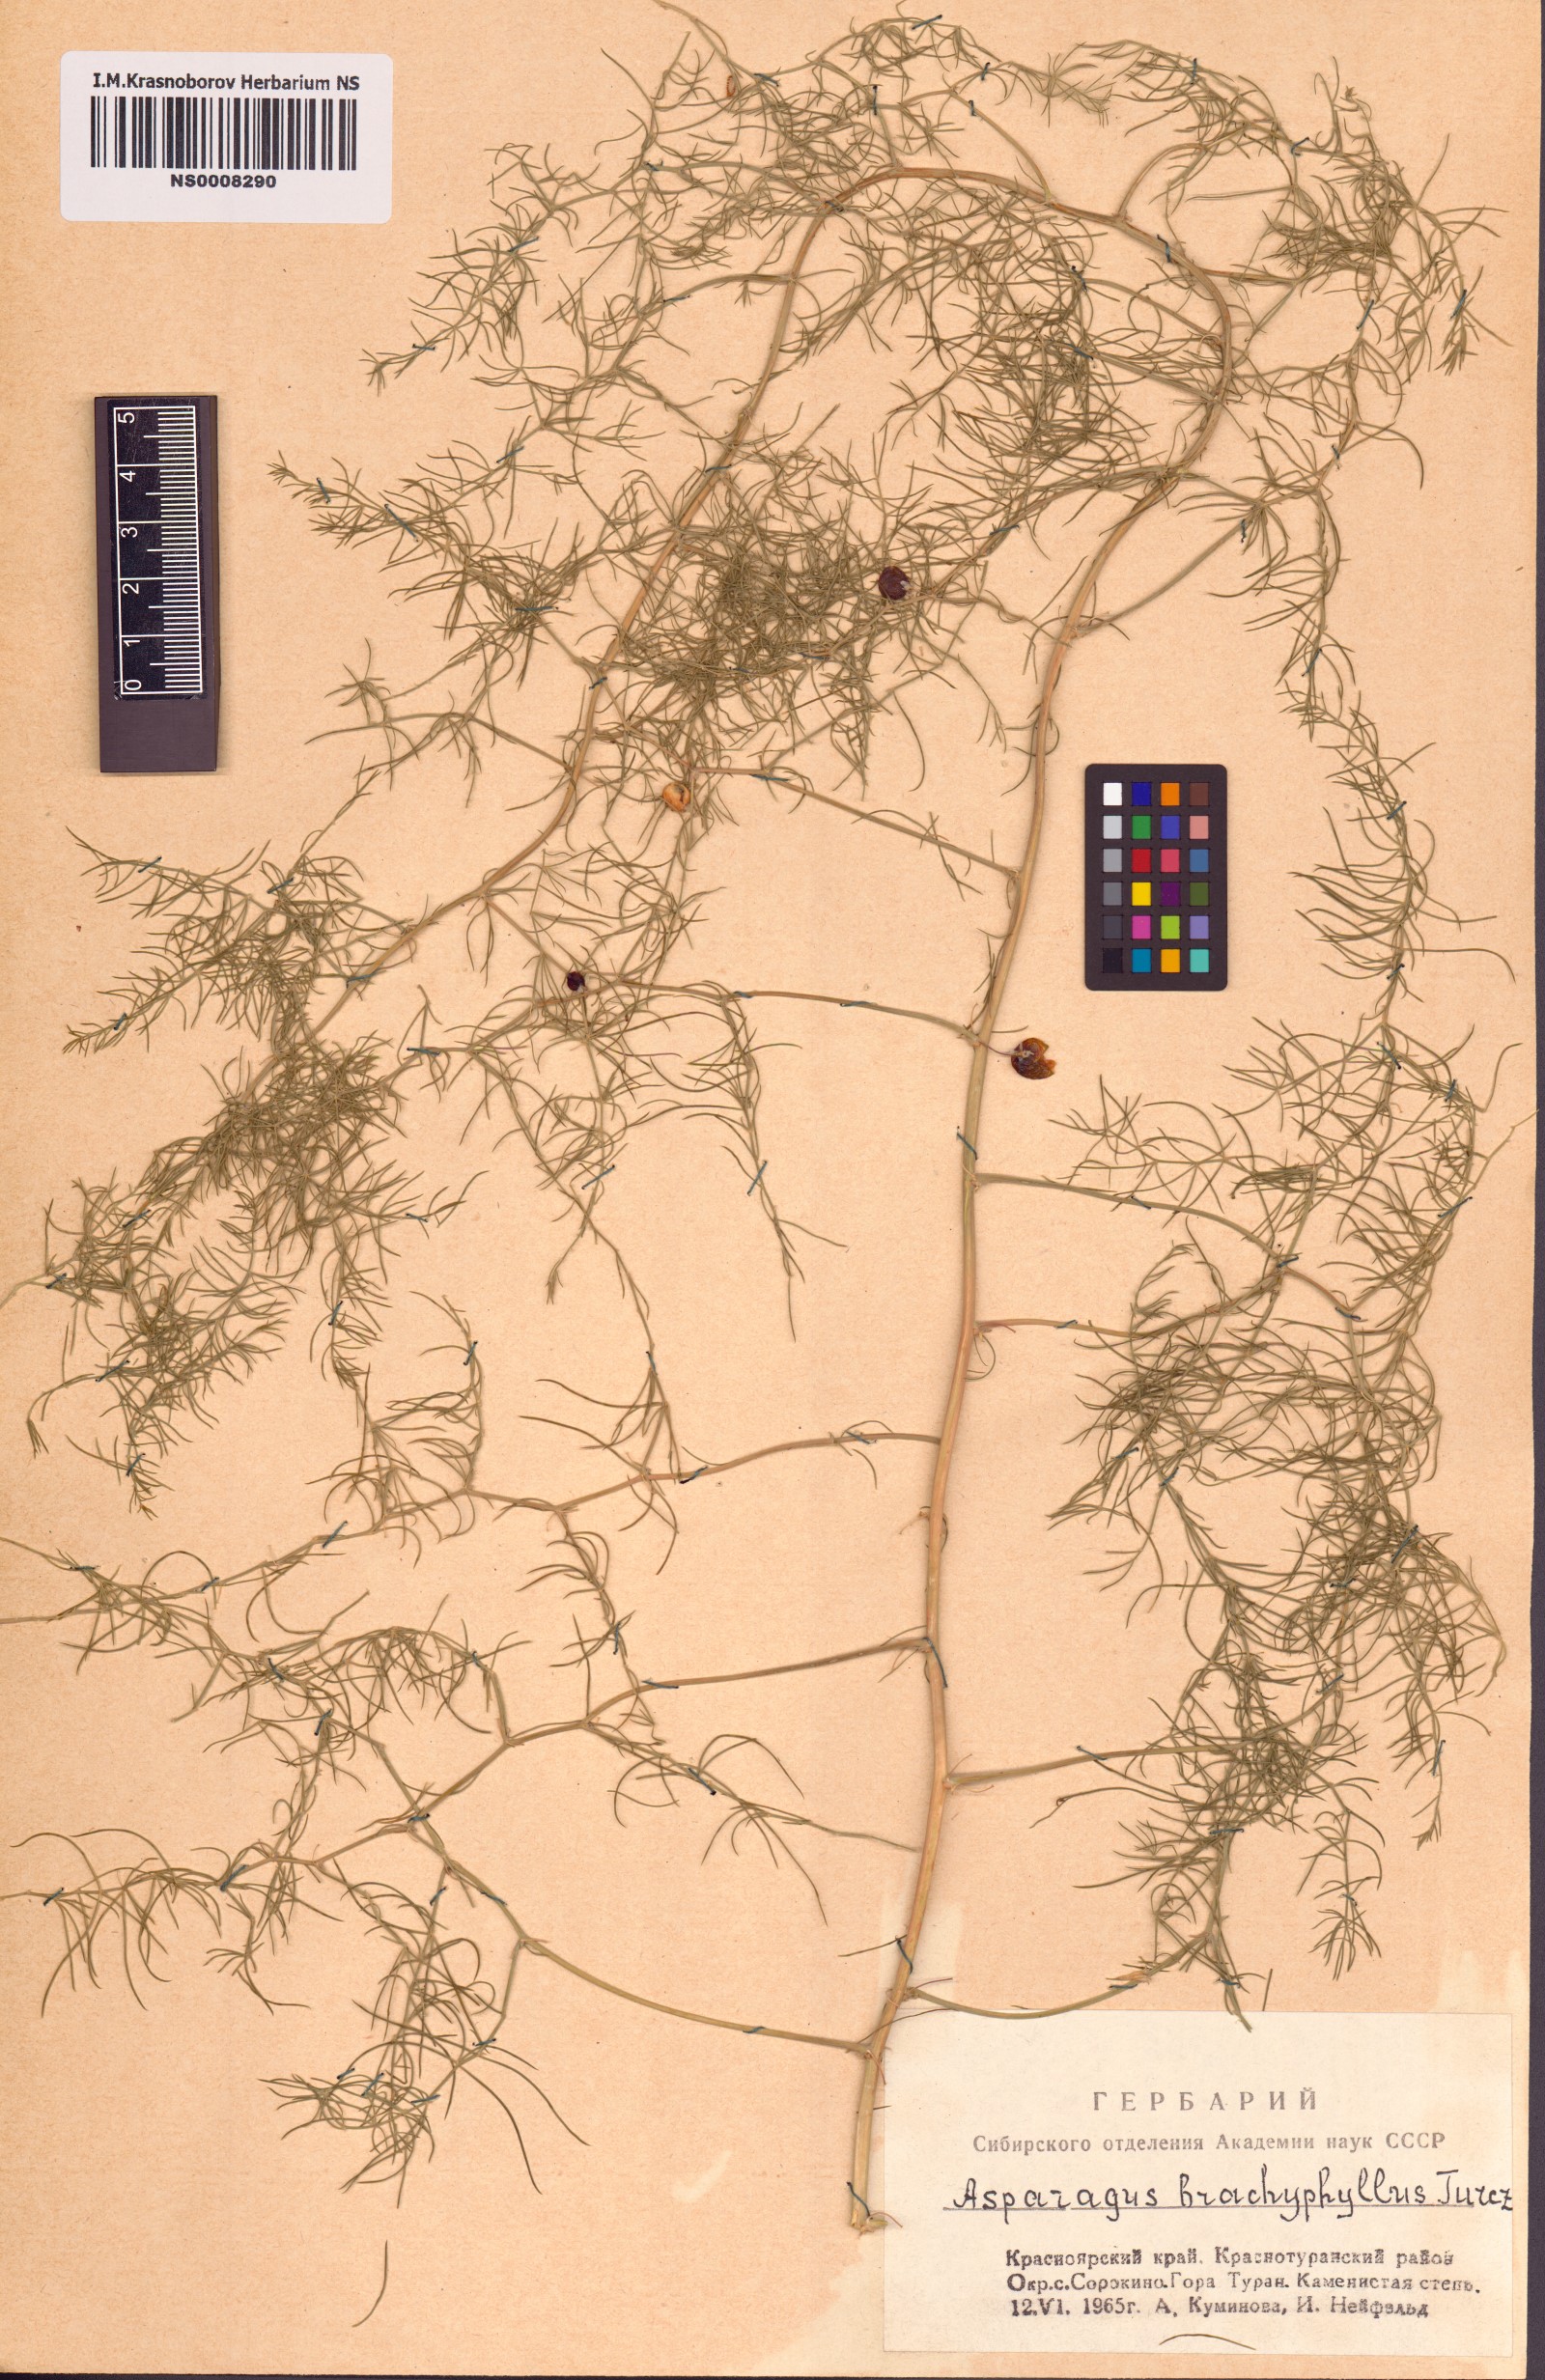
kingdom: Plantae
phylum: Tracheophyta
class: Liliopsida
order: Asparagales
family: Asparagaceae
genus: Asparagus
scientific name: Asparagus brachyphyllus
